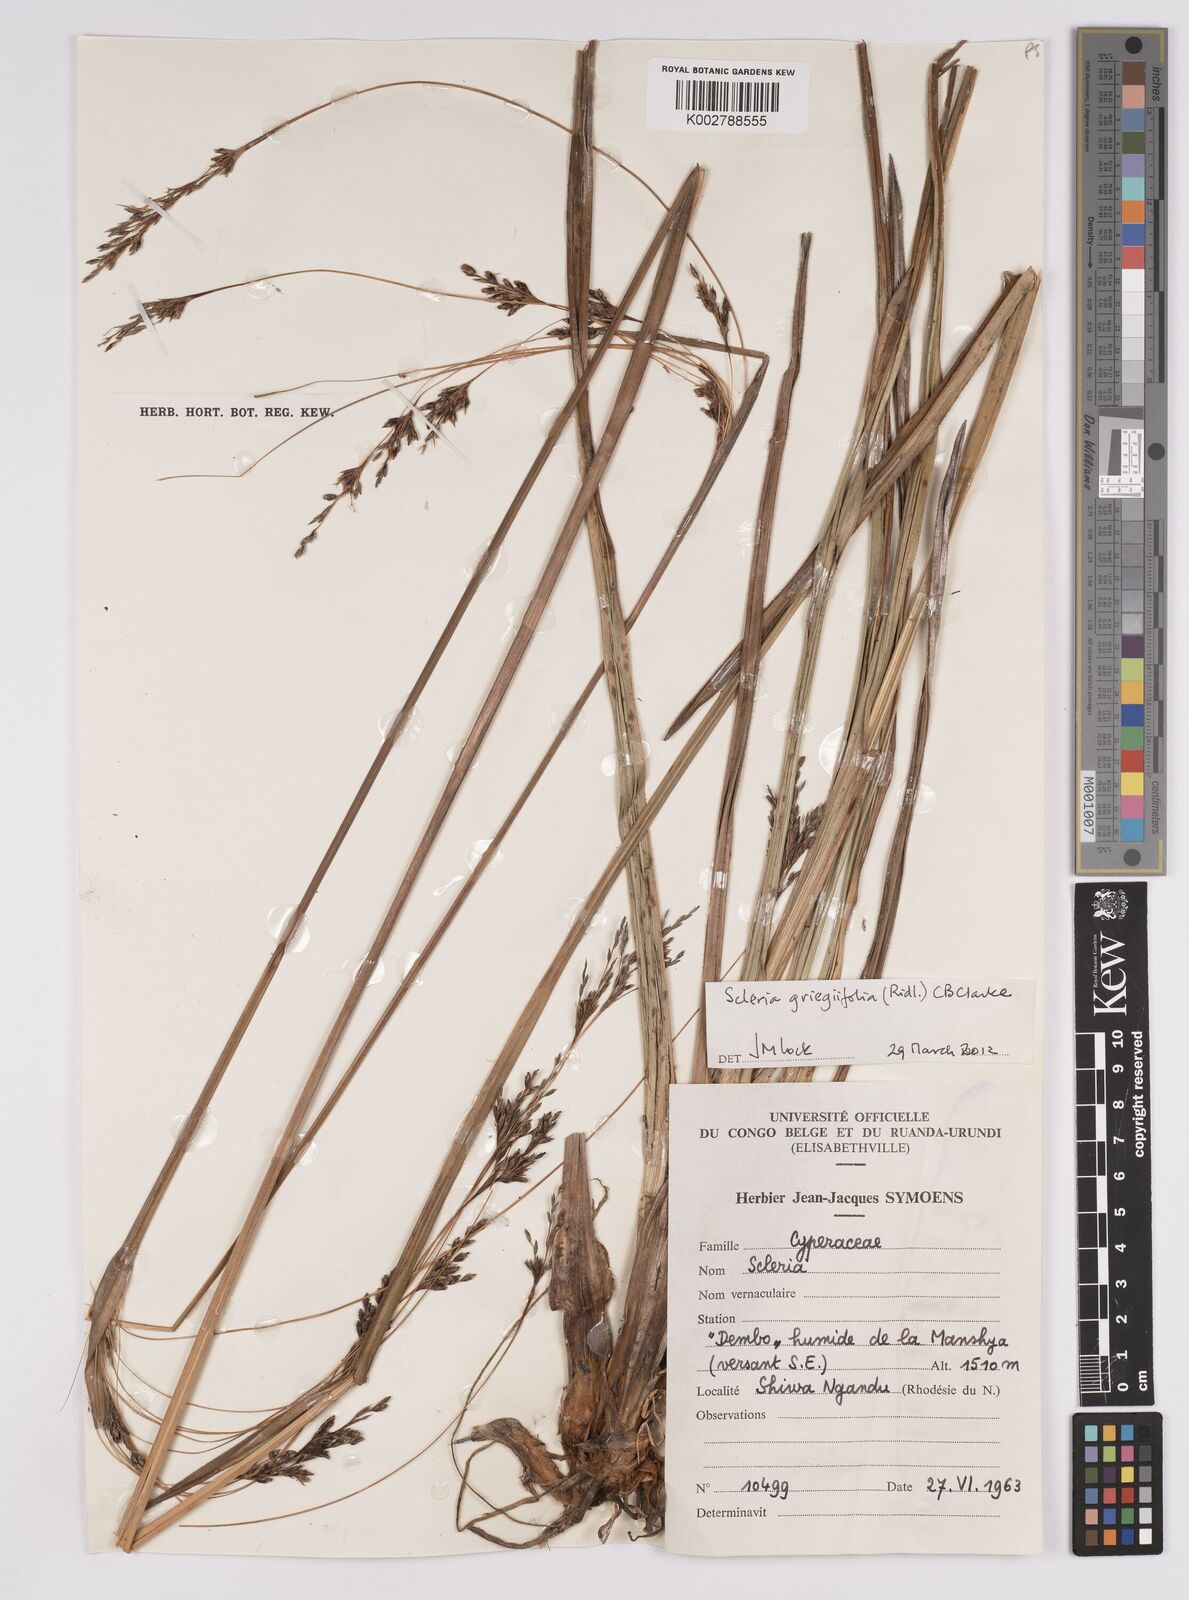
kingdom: Plantae
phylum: Tracheophyta
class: Liliopsida
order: Poales
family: Cyperaceae
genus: Scleria
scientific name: Scleria greigiifolia
